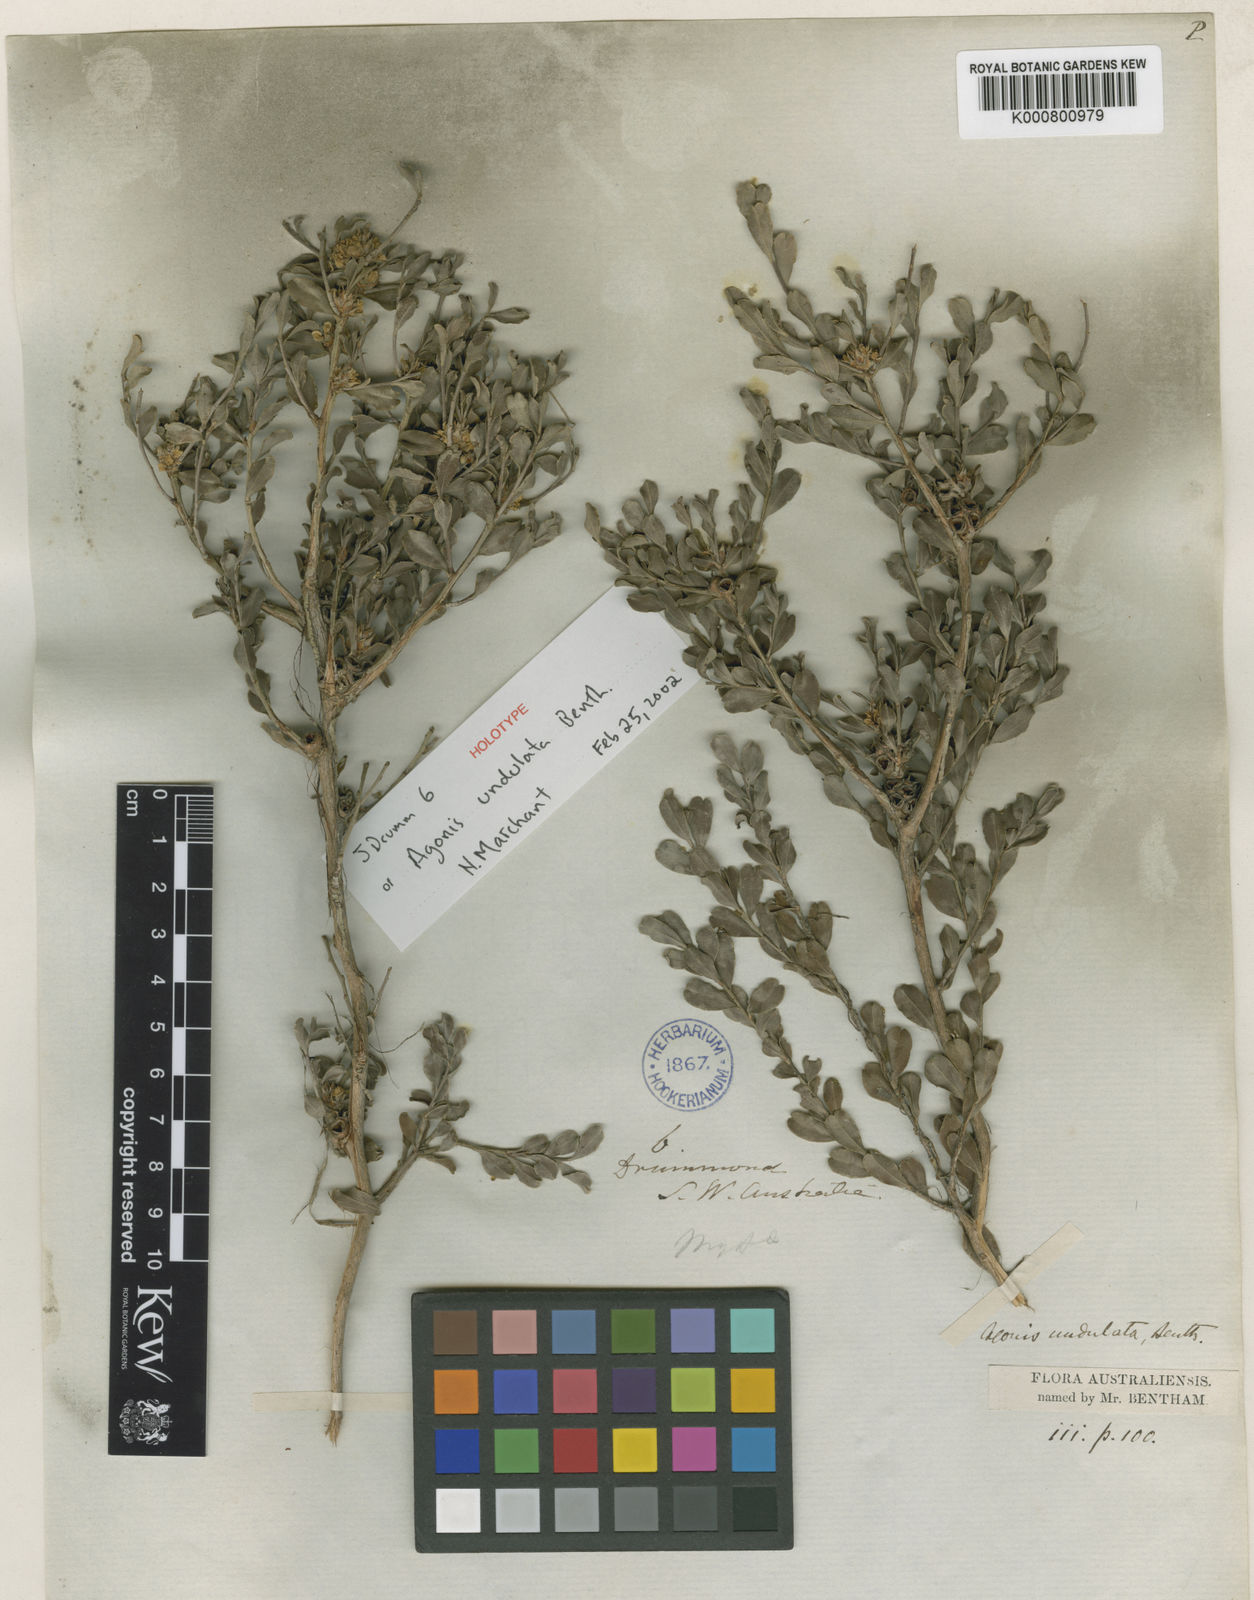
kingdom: Plantae
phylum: Tracheophyta
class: Magnoliopsida
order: Myrtales
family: Myrtaceae
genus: Agonis
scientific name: Agonis undulata
